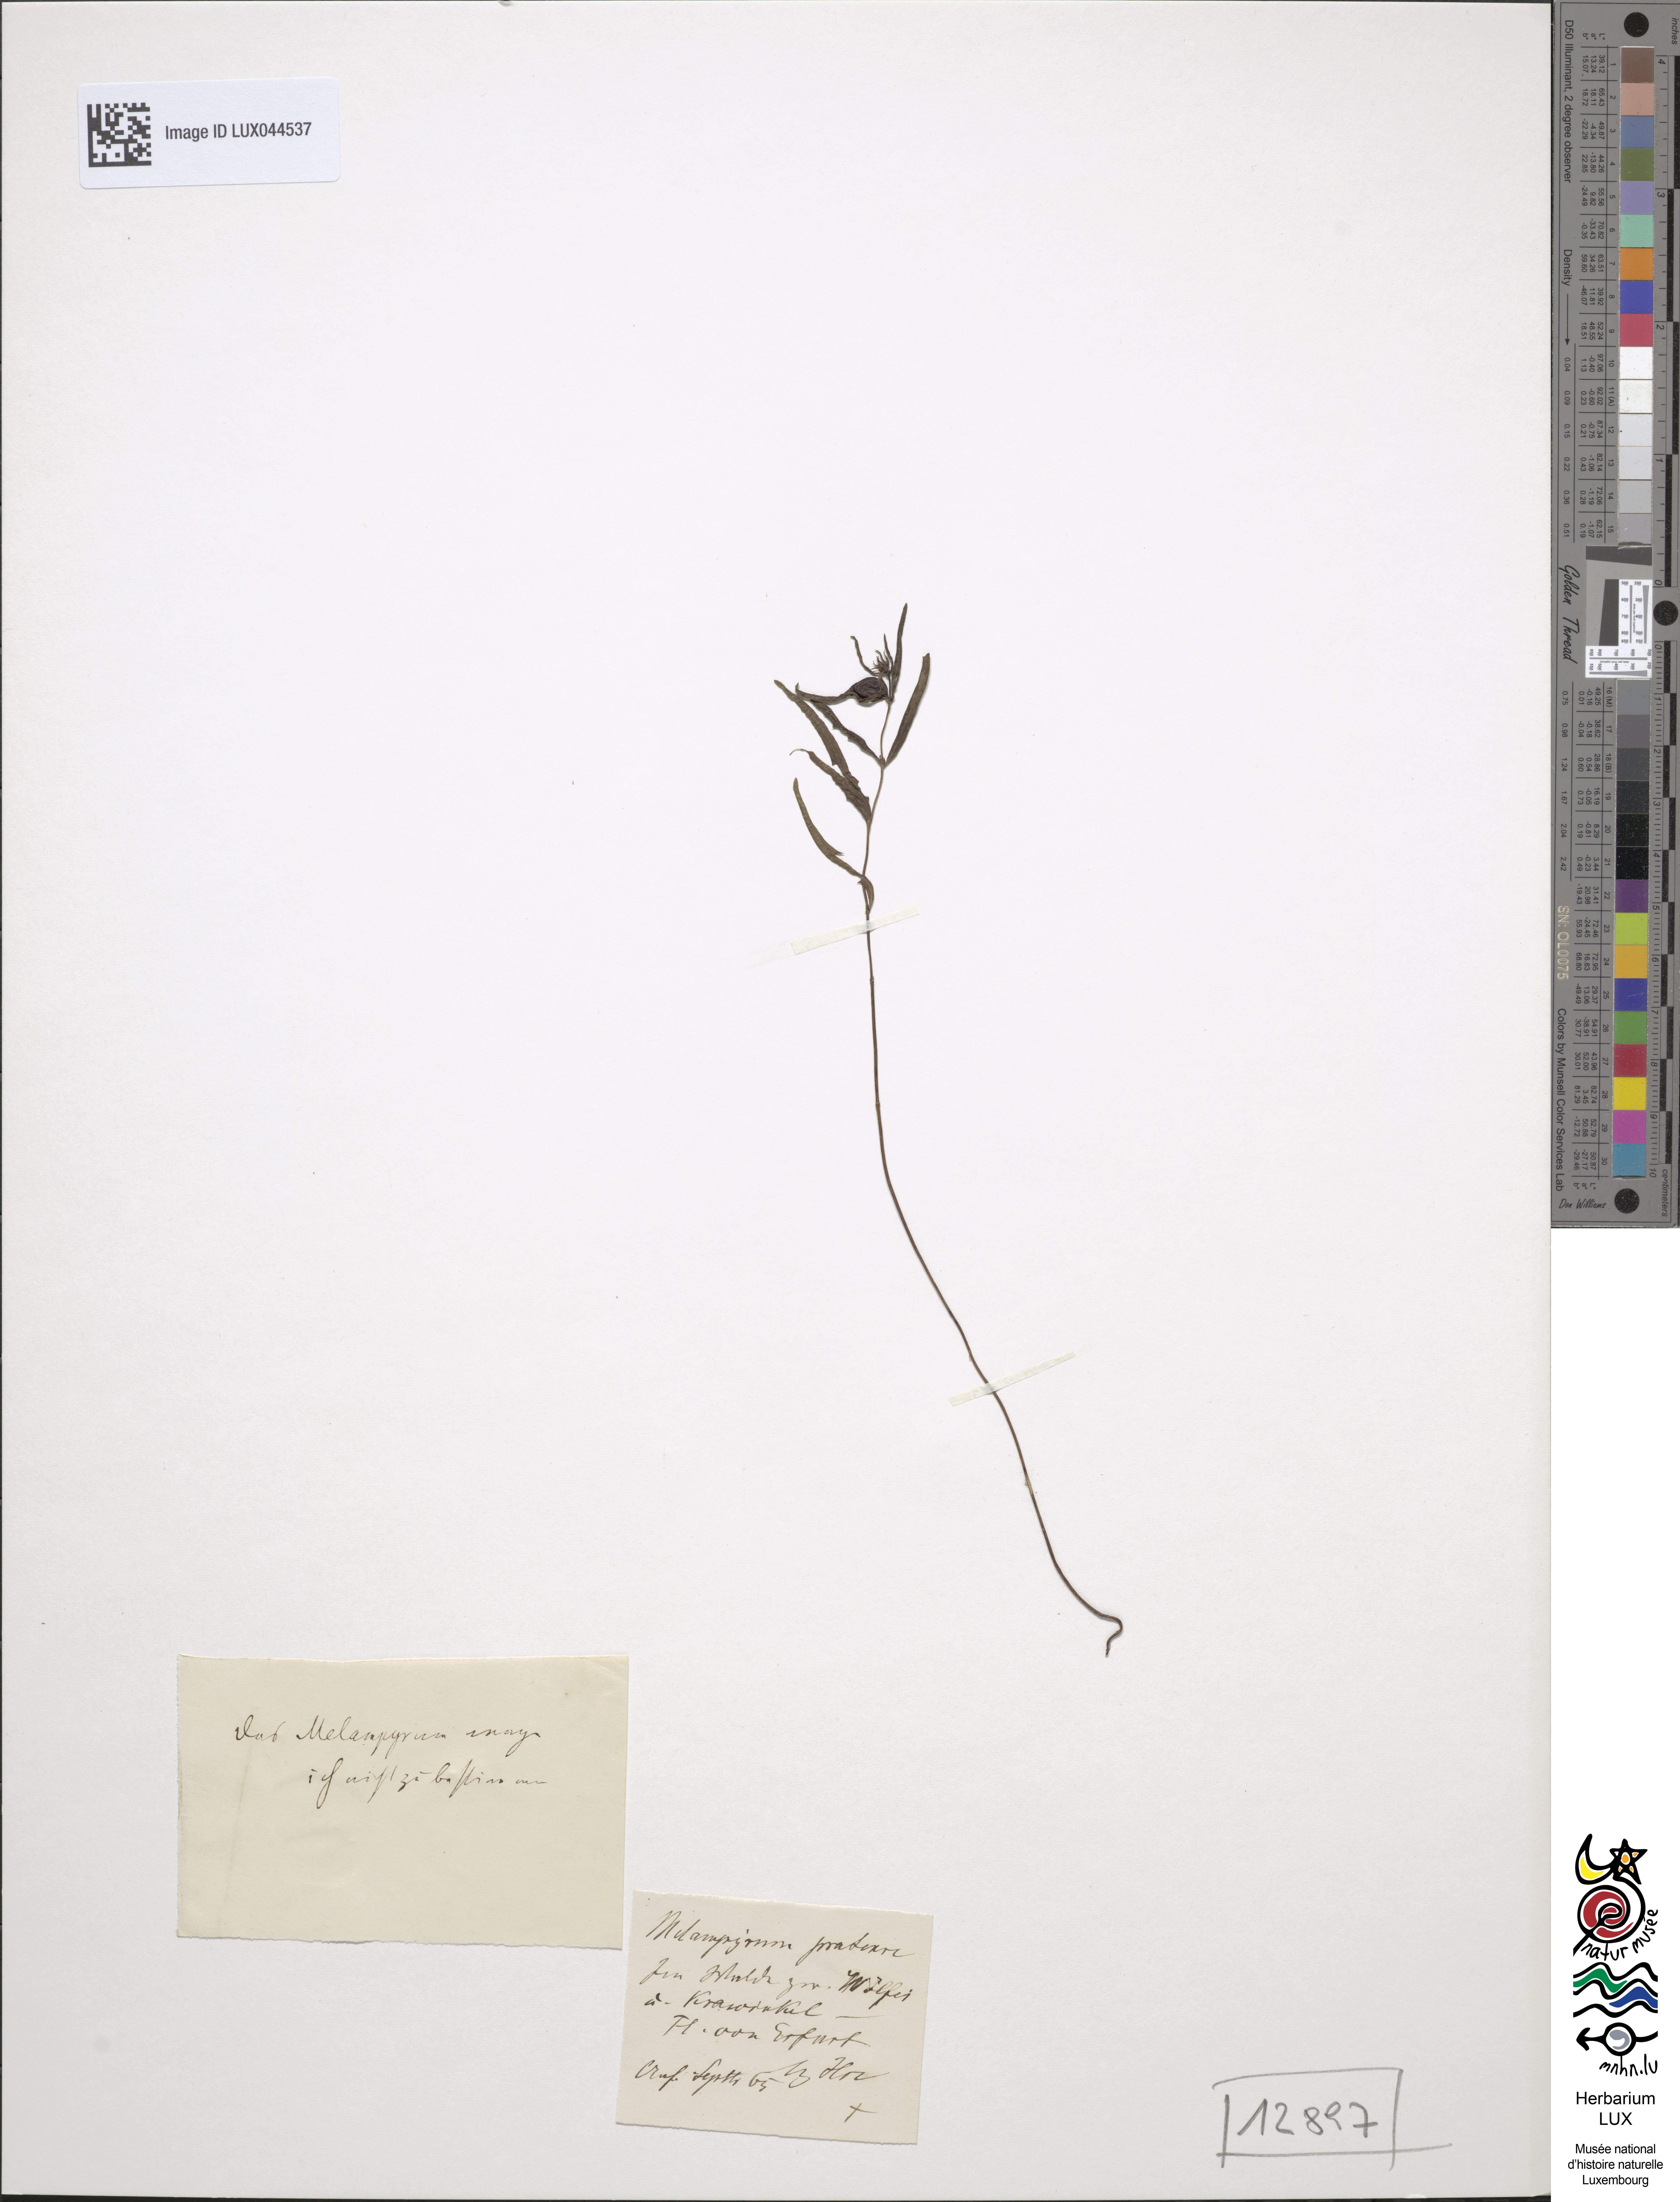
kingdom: Plantae
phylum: Tracheophyta
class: Magnoliopsida
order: Lamiales
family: Orobanchaceae
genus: Melampyrum
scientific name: Melampyrum pratense
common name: Common cow-wheat
